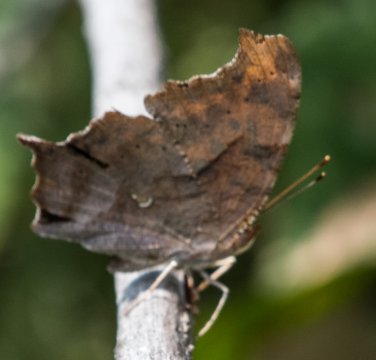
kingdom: Animalia
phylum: Arthropoda
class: Insecta
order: Lepidoptera
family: Nymphalidae
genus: Polygonia
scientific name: Polygonia interrogationis
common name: Question Mark
